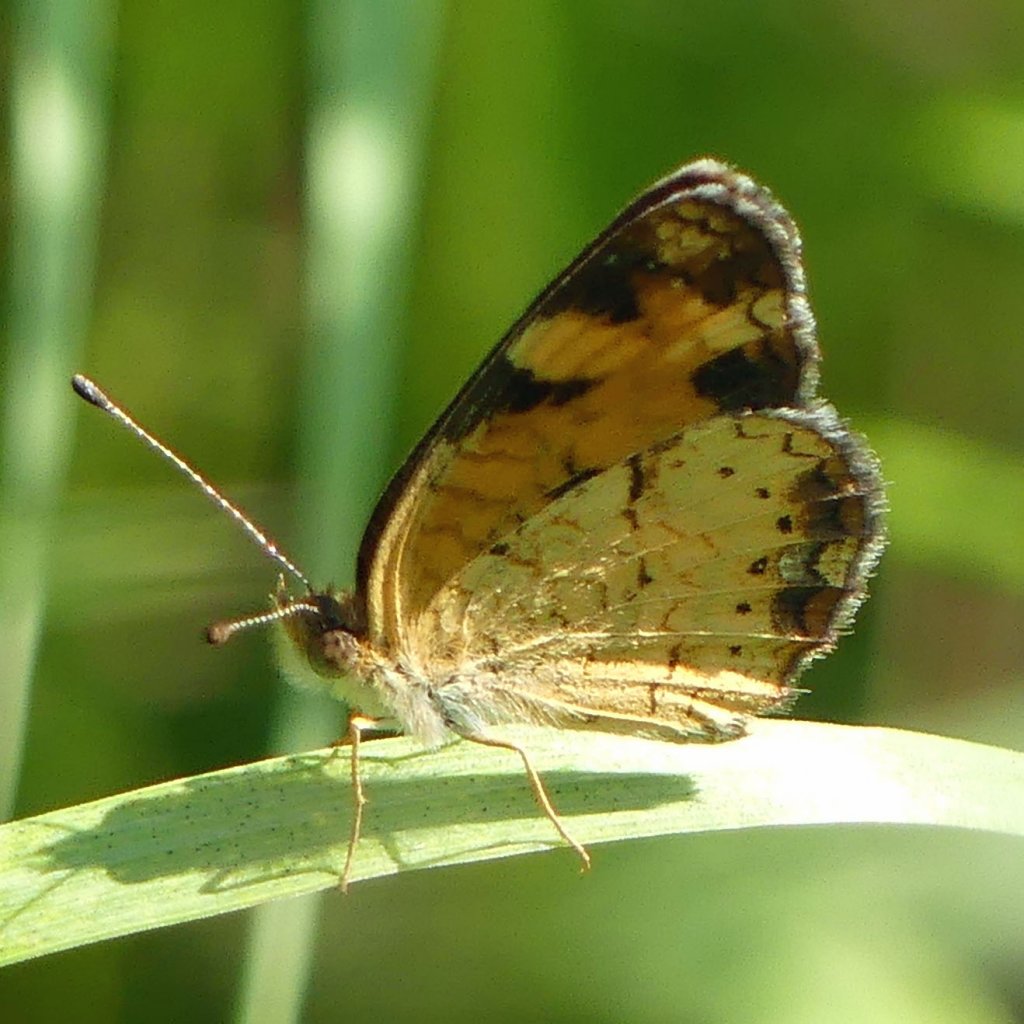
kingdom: Animalia
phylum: Arthropoda
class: Insecta
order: Lepidoptera
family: Nymphalidae
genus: Phyciodes
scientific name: Phyciodes tharos
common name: Pearl Crescent
